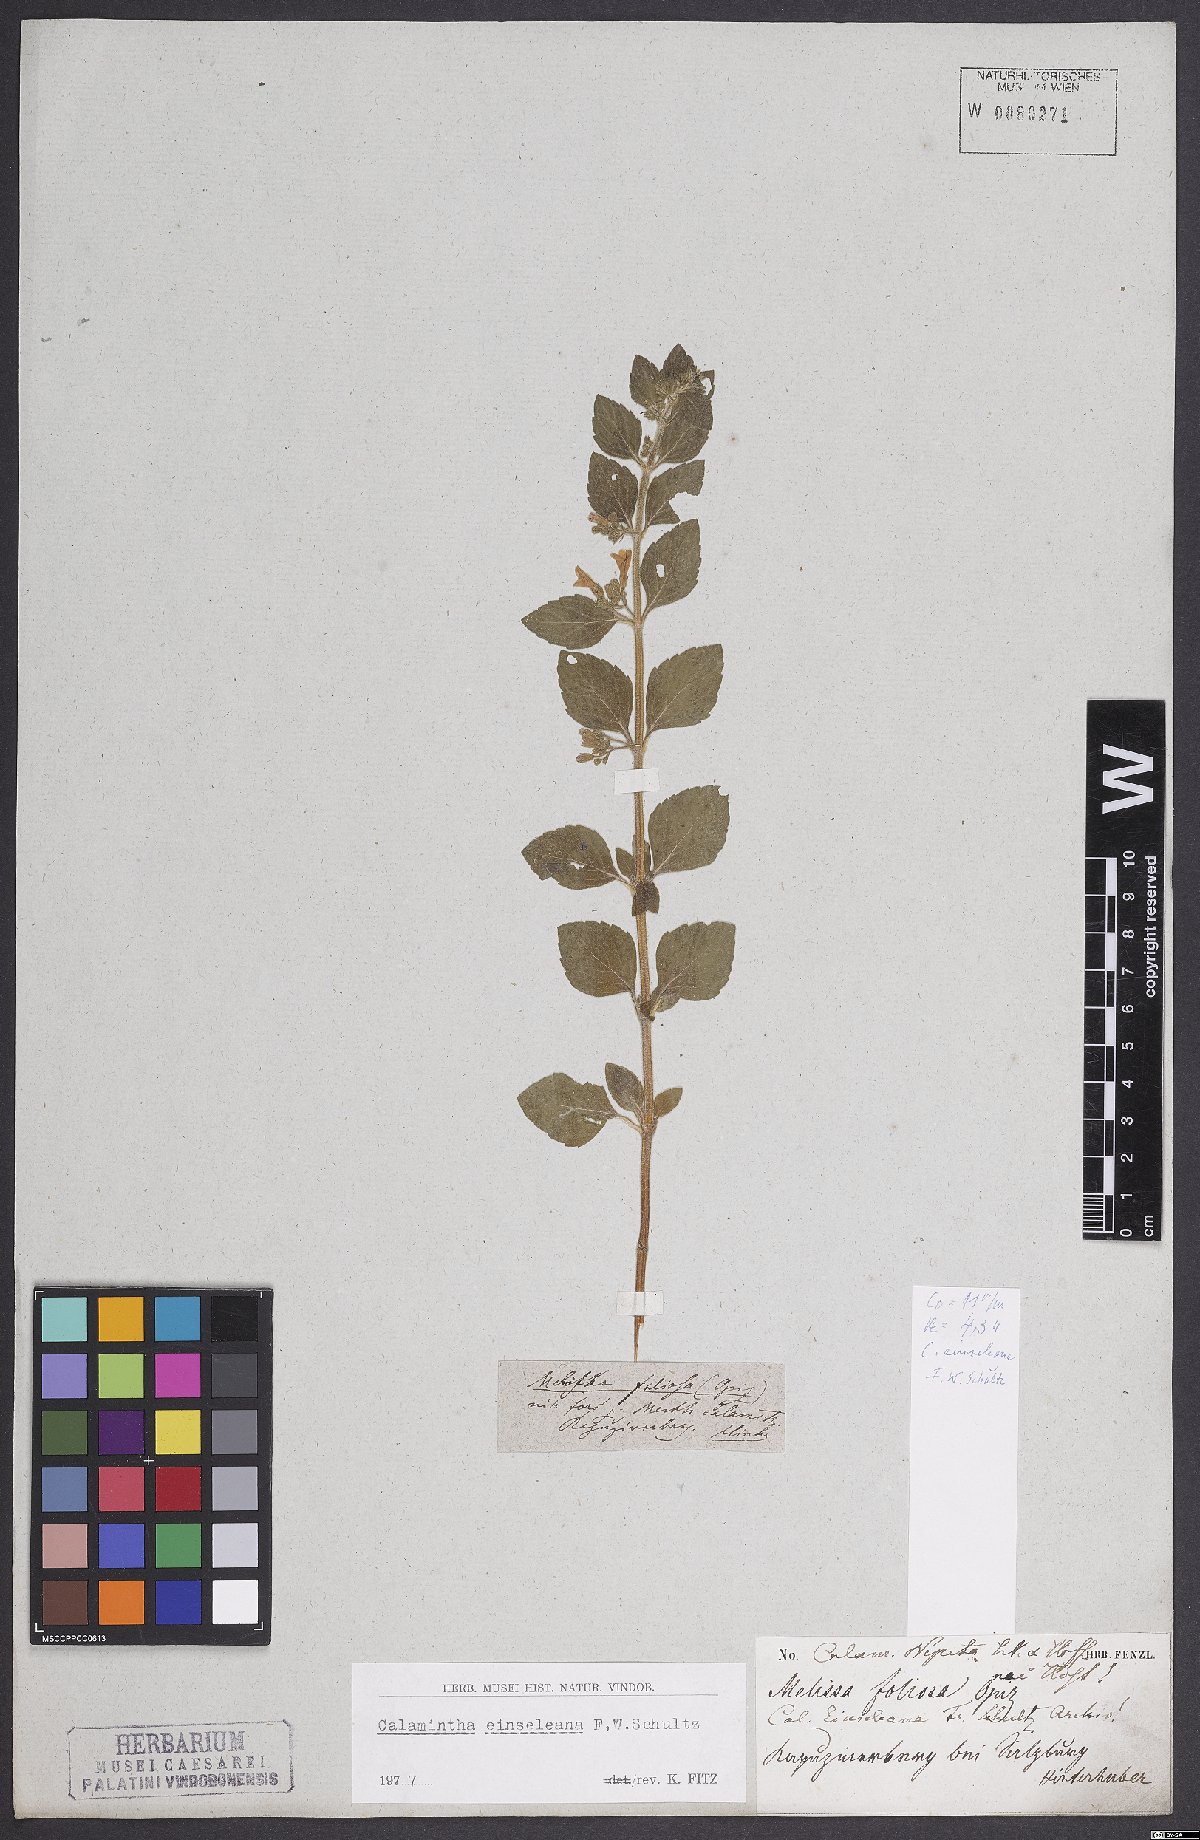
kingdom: Plantae
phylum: Tracheophyta
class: Magnoliopsida
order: Lamiales
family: Lamiaceae
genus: Clinopodium
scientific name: Clinopodium nepeta
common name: Lesser calamint
